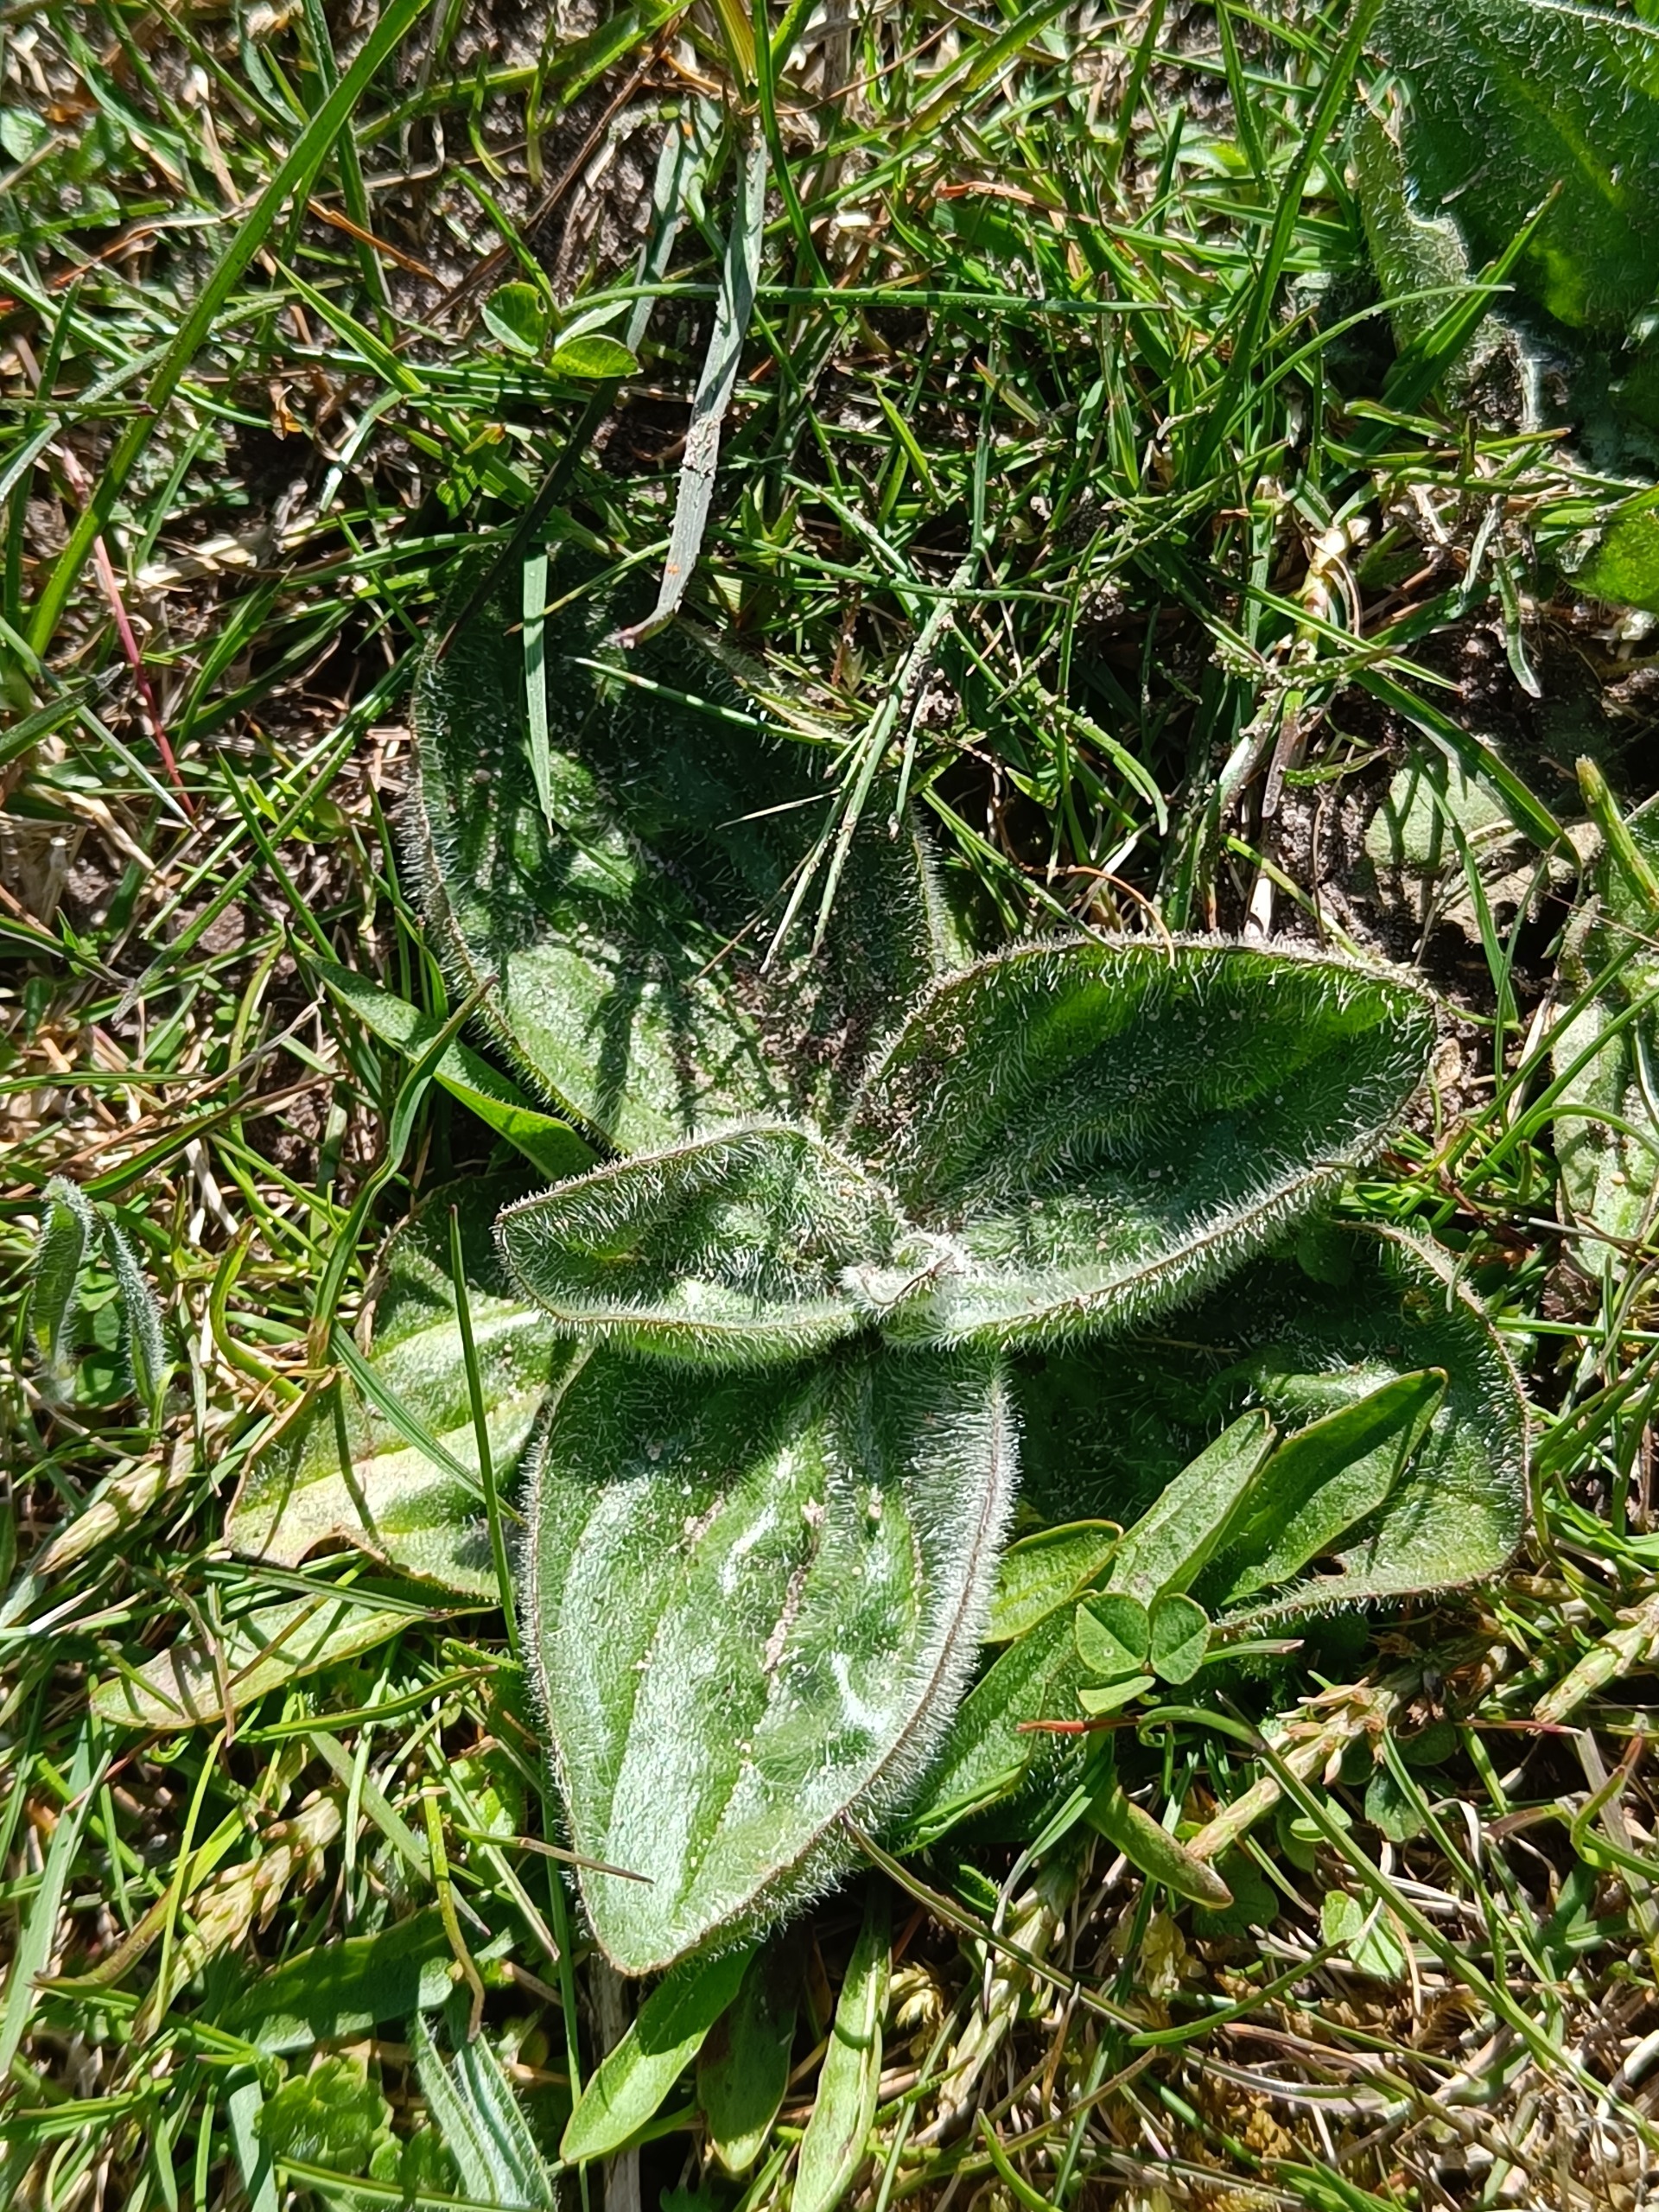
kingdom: Plantae
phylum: Tracheophyta
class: Magnoliopsida
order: Lamiales
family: Plantaginaceae
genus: Plantago
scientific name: Plantago media
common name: Dunet vejbred
